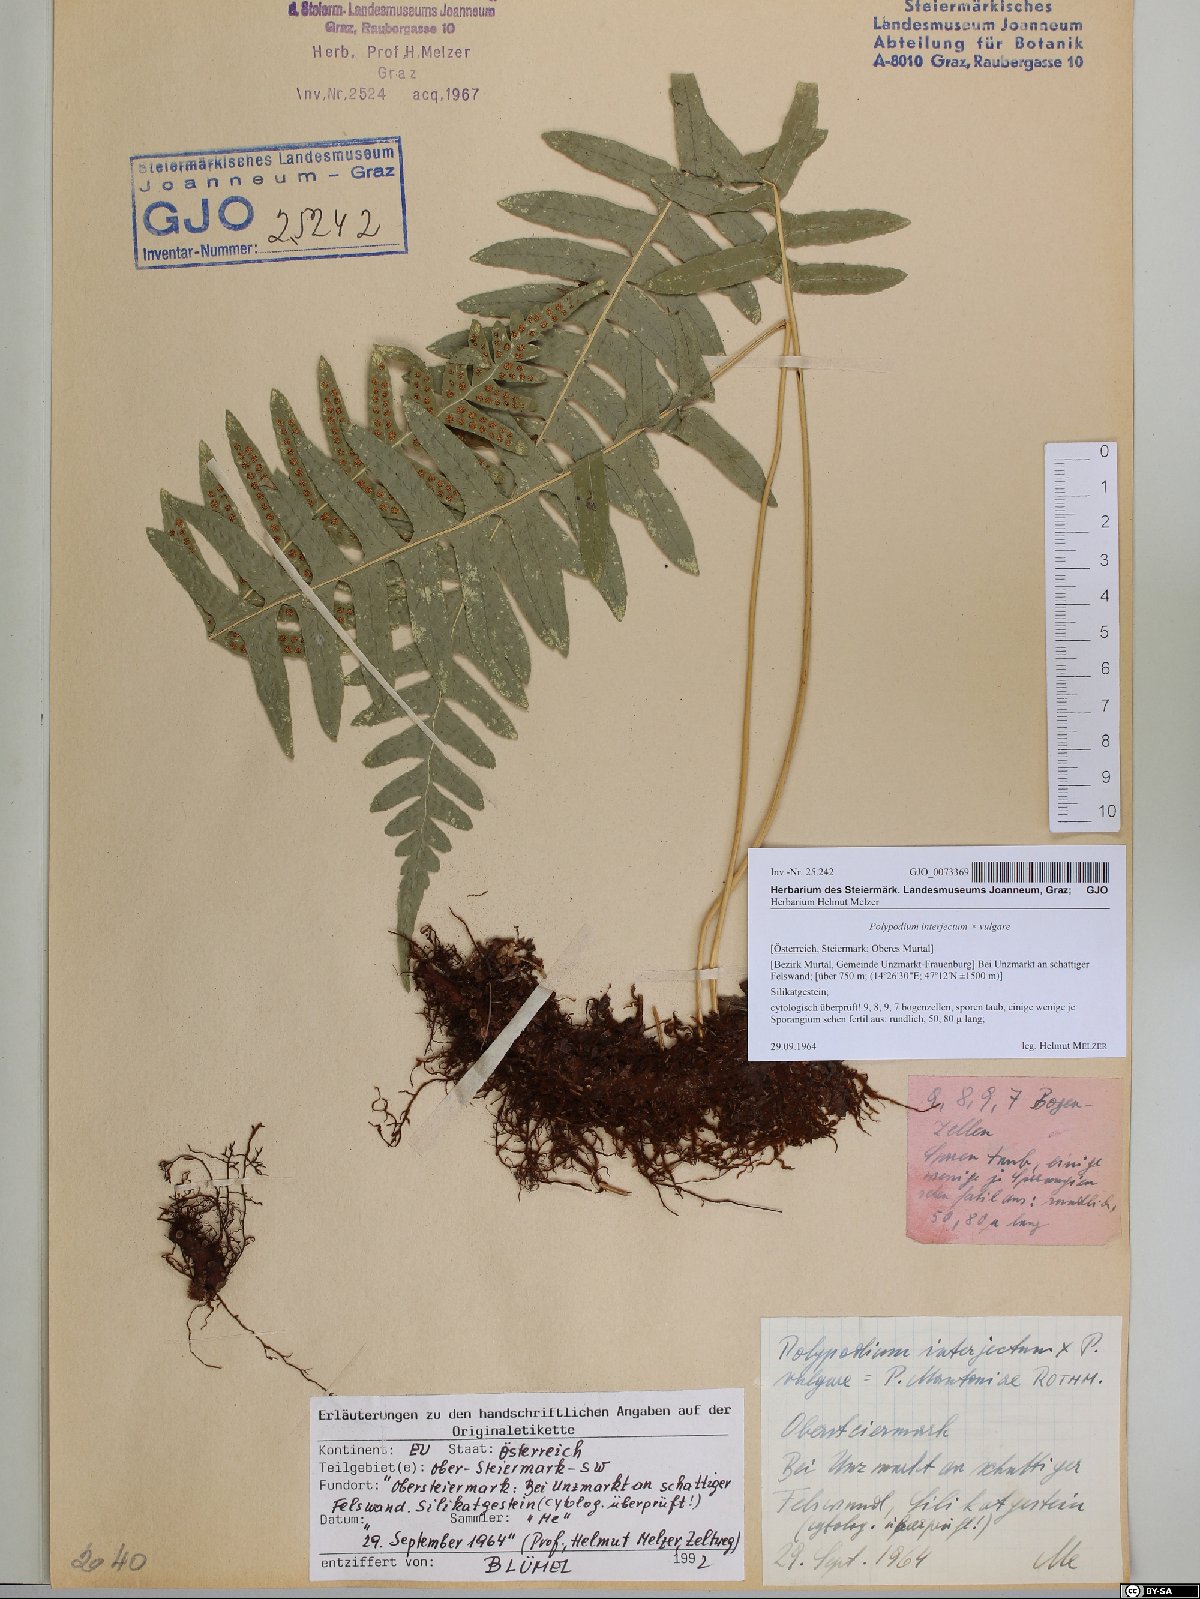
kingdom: Plantae
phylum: Tracheophyta
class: Polypodiopsida
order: Polypodiales
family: Polypodiaceae
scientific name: Polypodiaceae
